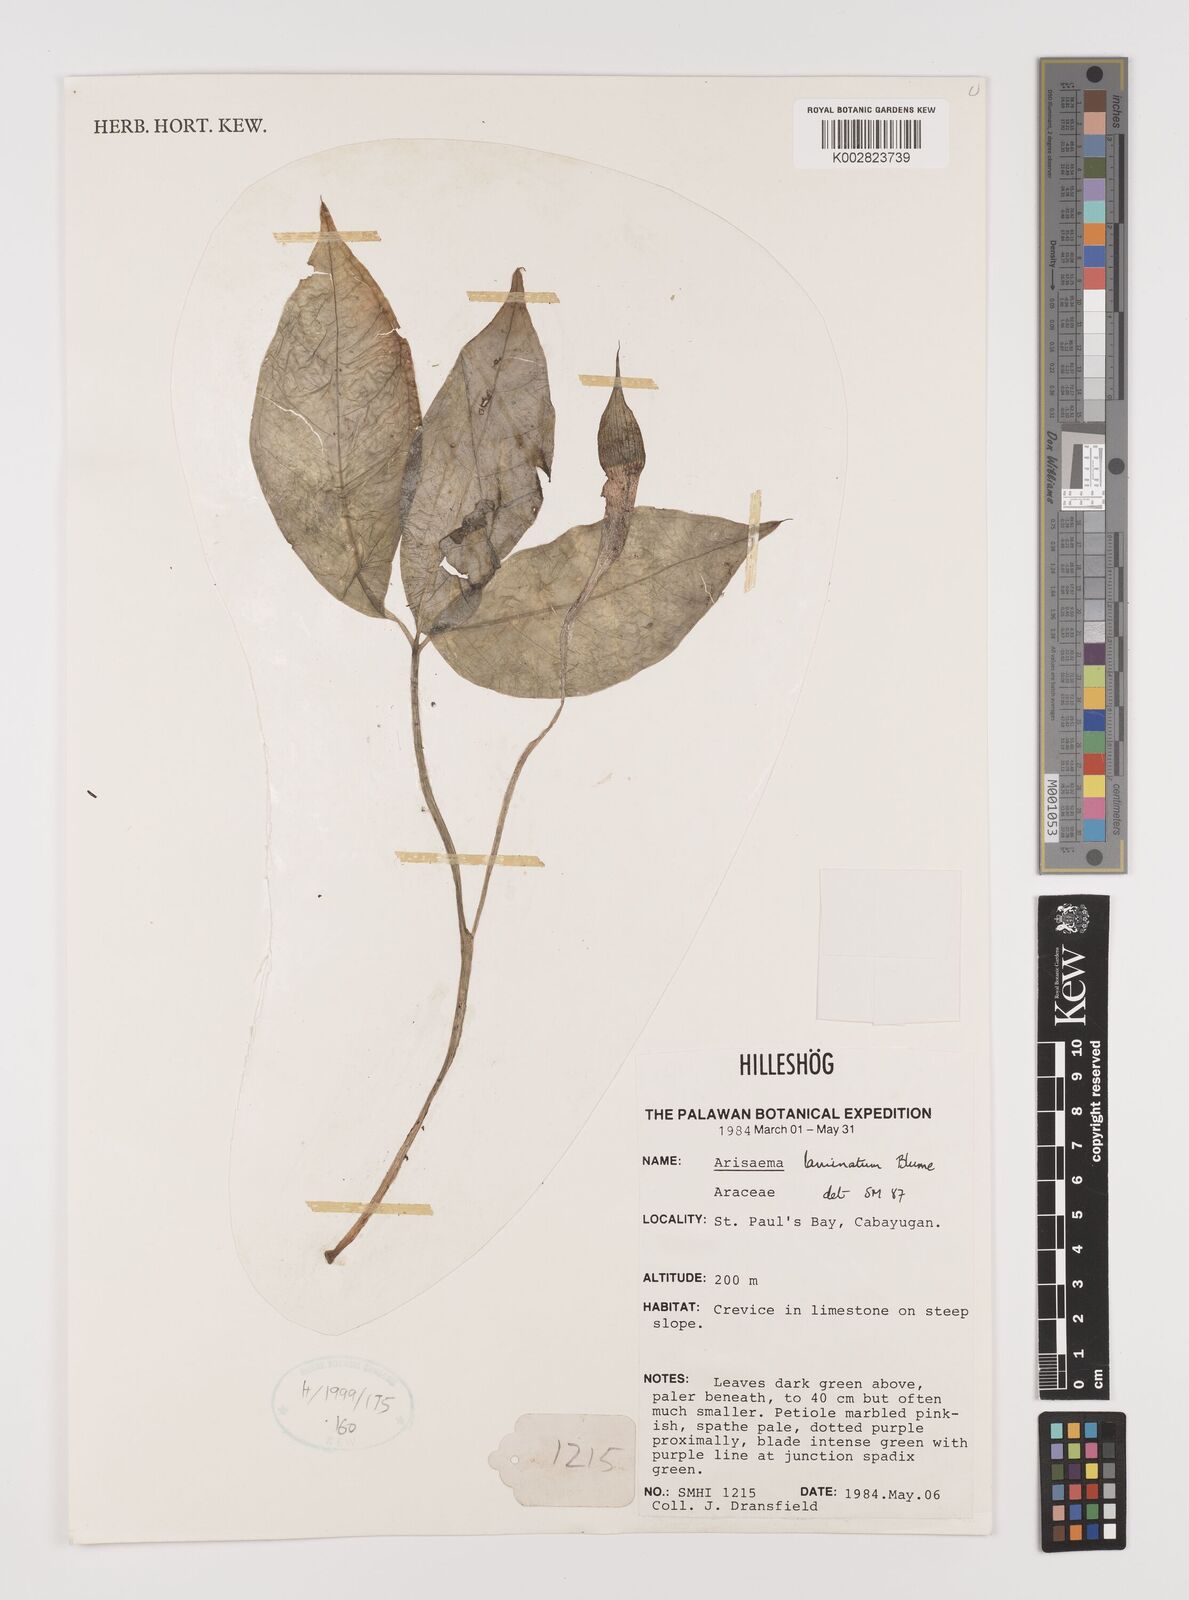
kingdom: Plantae
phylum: Tracheophyta
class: Liliopsida
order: Alismatales
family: Araceae
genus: Arisaema
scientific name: Arisaema laminatum
